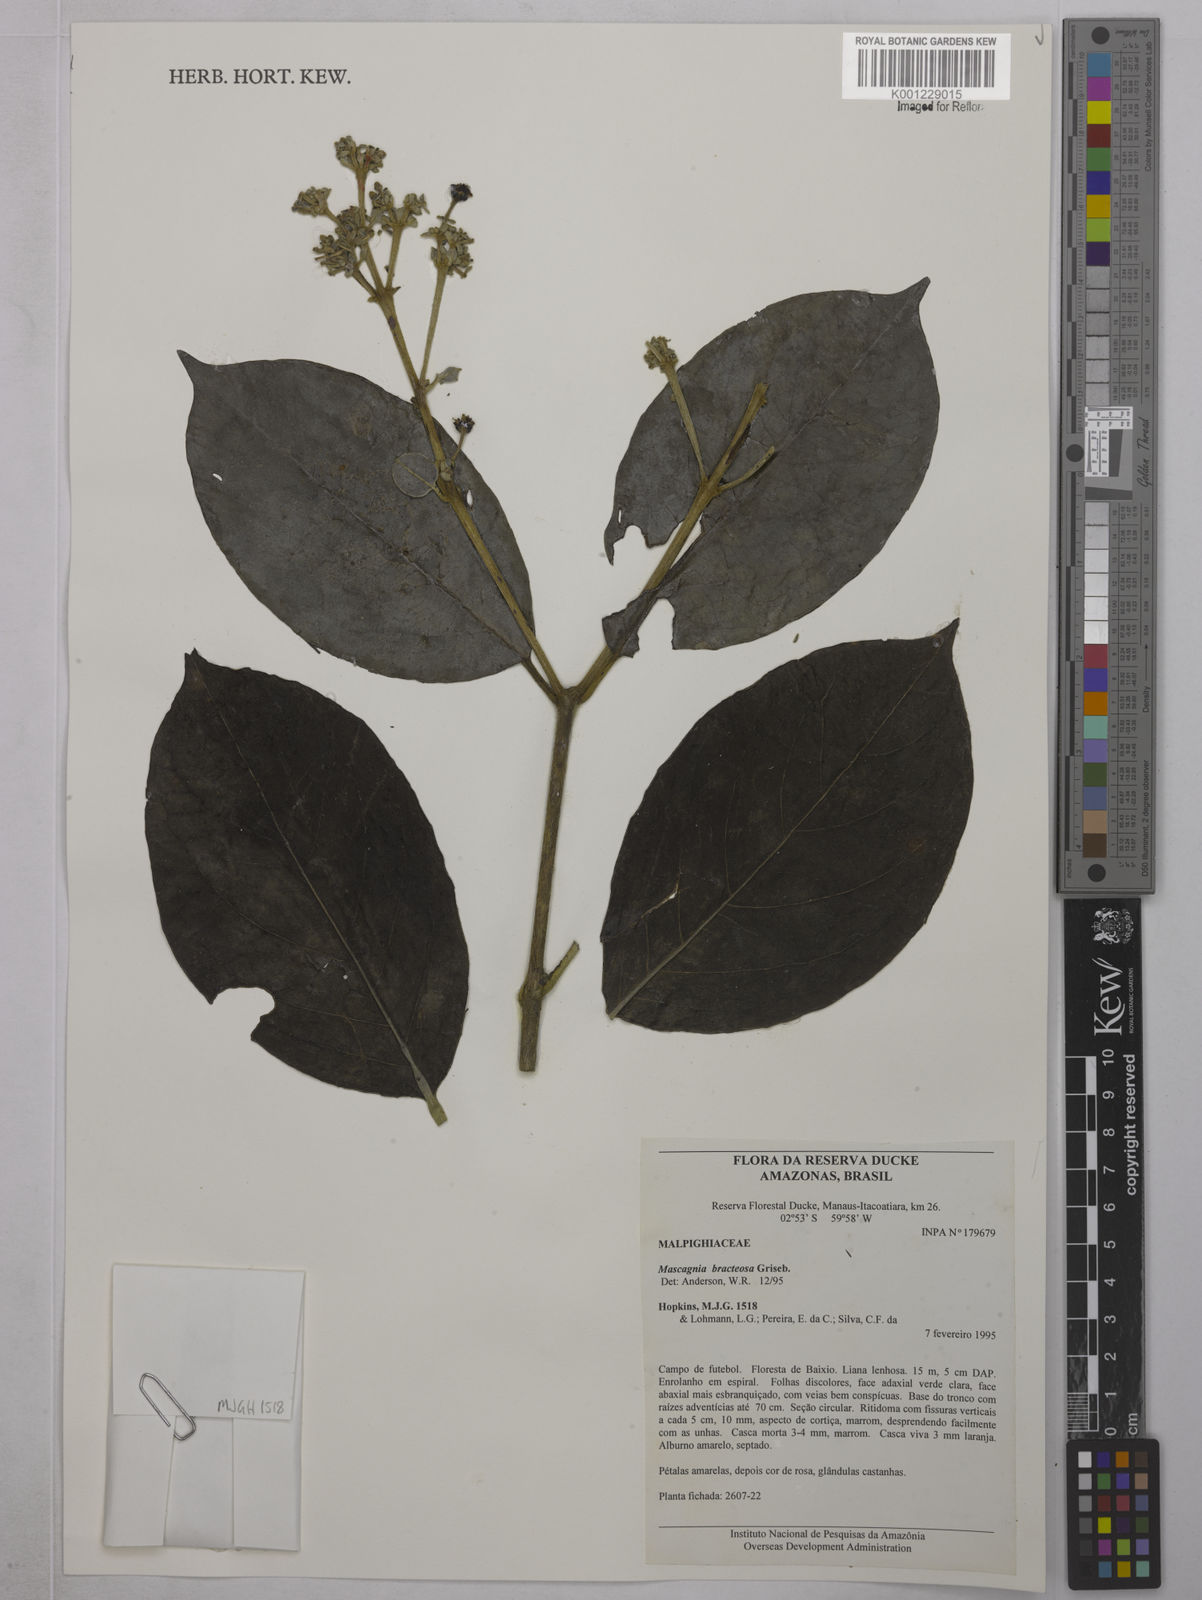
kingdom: Plantae
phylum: Tracheophyta
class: Magnoliopsida
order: Malpighiales
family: Malpighiaceae
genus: Malpighiodes
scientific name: Malpighiodes bracteosa
